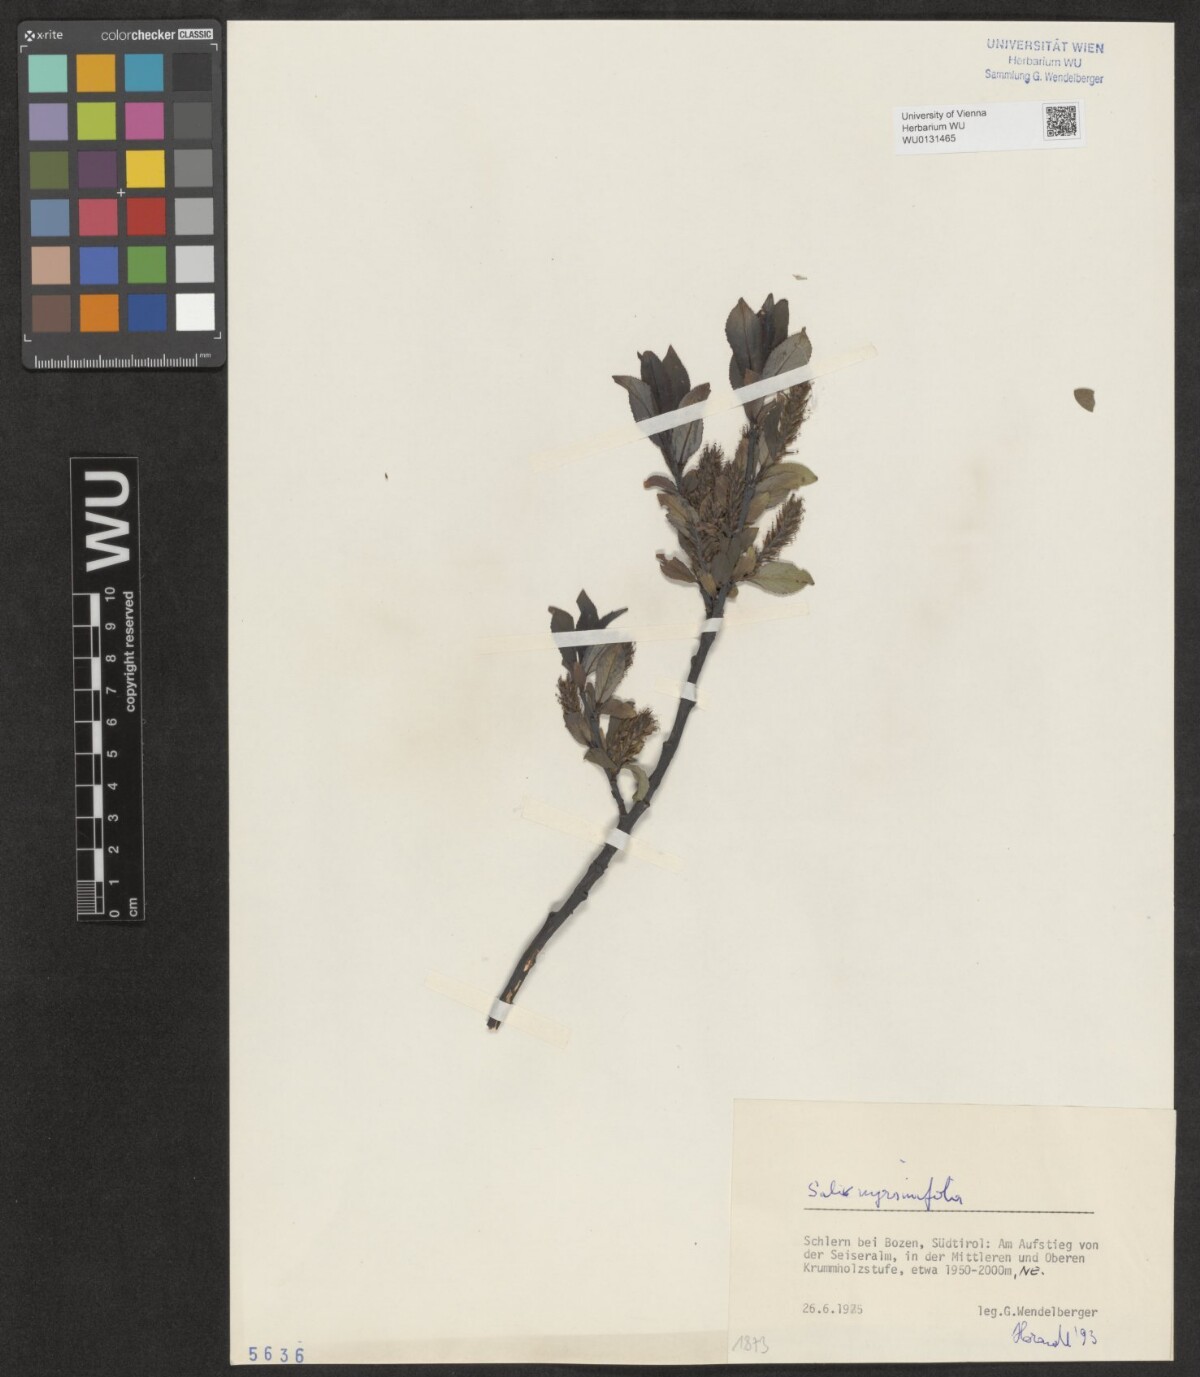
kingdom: Plantae
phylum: Tracheophyta
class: Magnoliopsida
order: Malpighiales
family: Salicaceae
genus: Salix
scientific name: Salix myrsinifolia
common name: Dark-leaved willow
